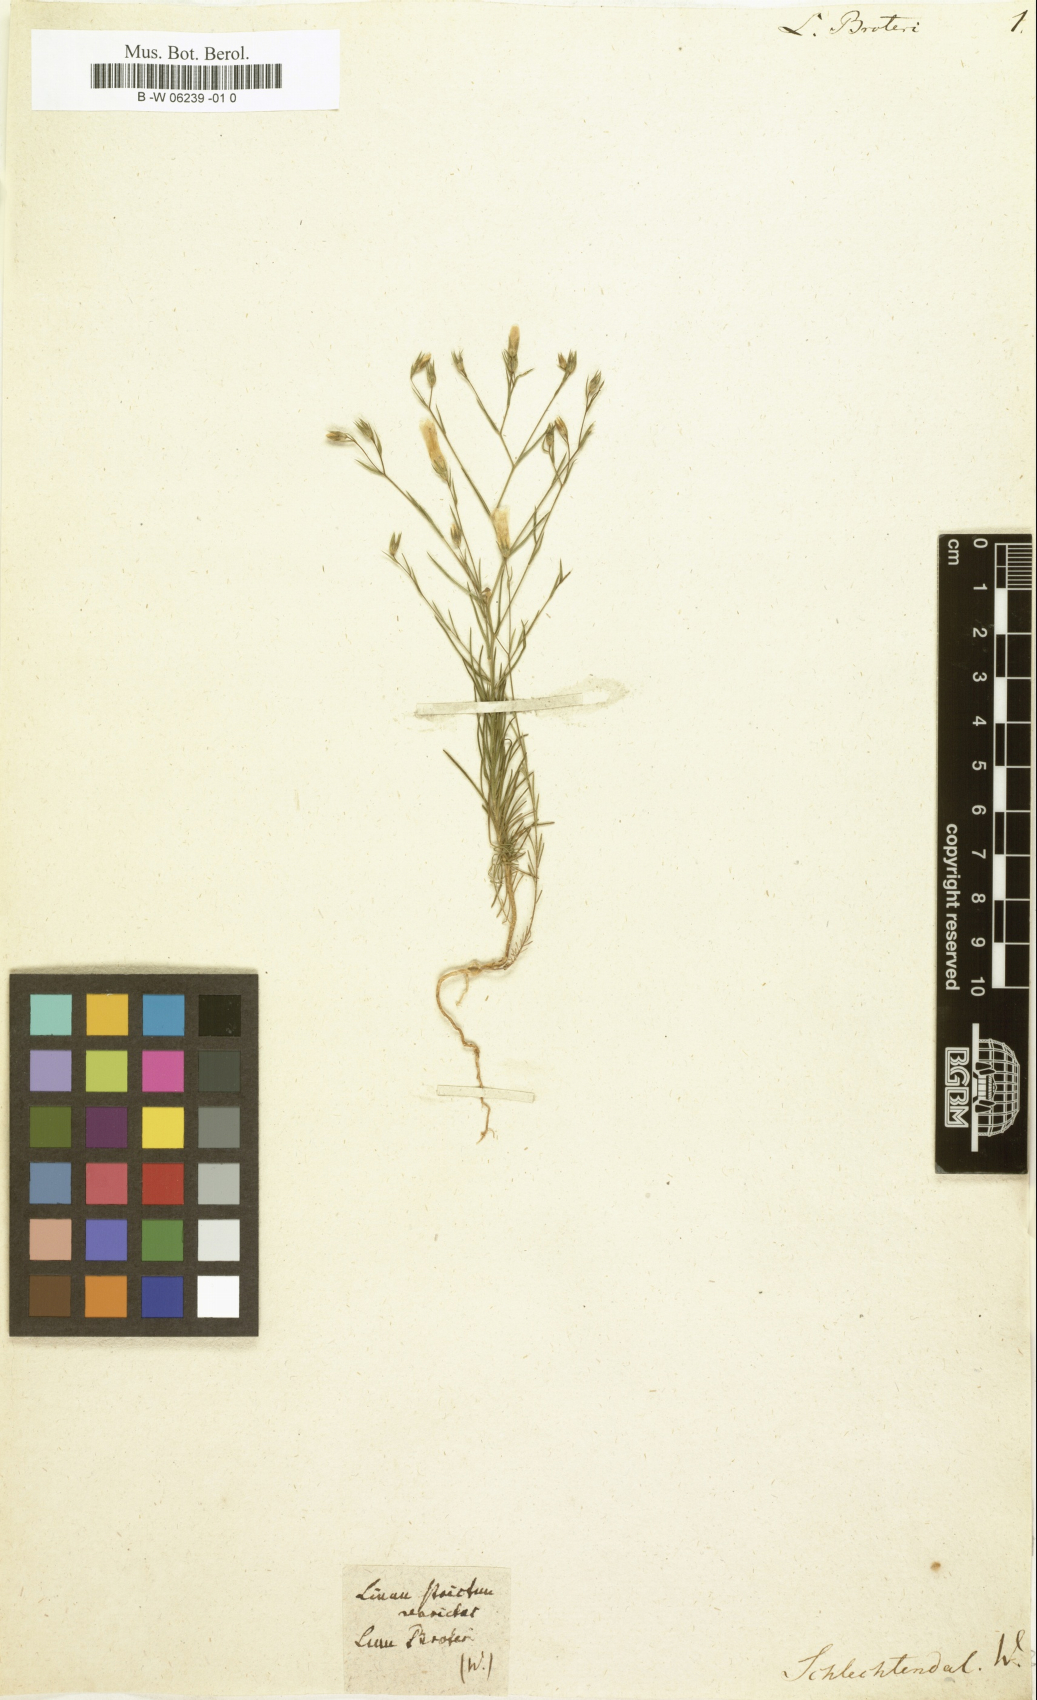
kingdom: Plantae
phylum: Tracheophyta
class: Magnoliopsida
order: Malpighiales
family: Linaceae
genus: Linum
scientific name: Linum broteri
